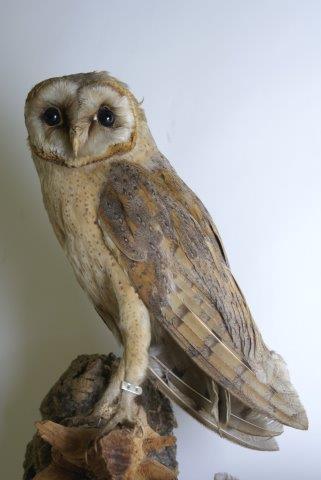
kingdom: Animalia
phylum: Chordata
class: Aves
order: Strigiformes
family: Tytonidae
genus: Tyto
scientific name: Tyto alba
